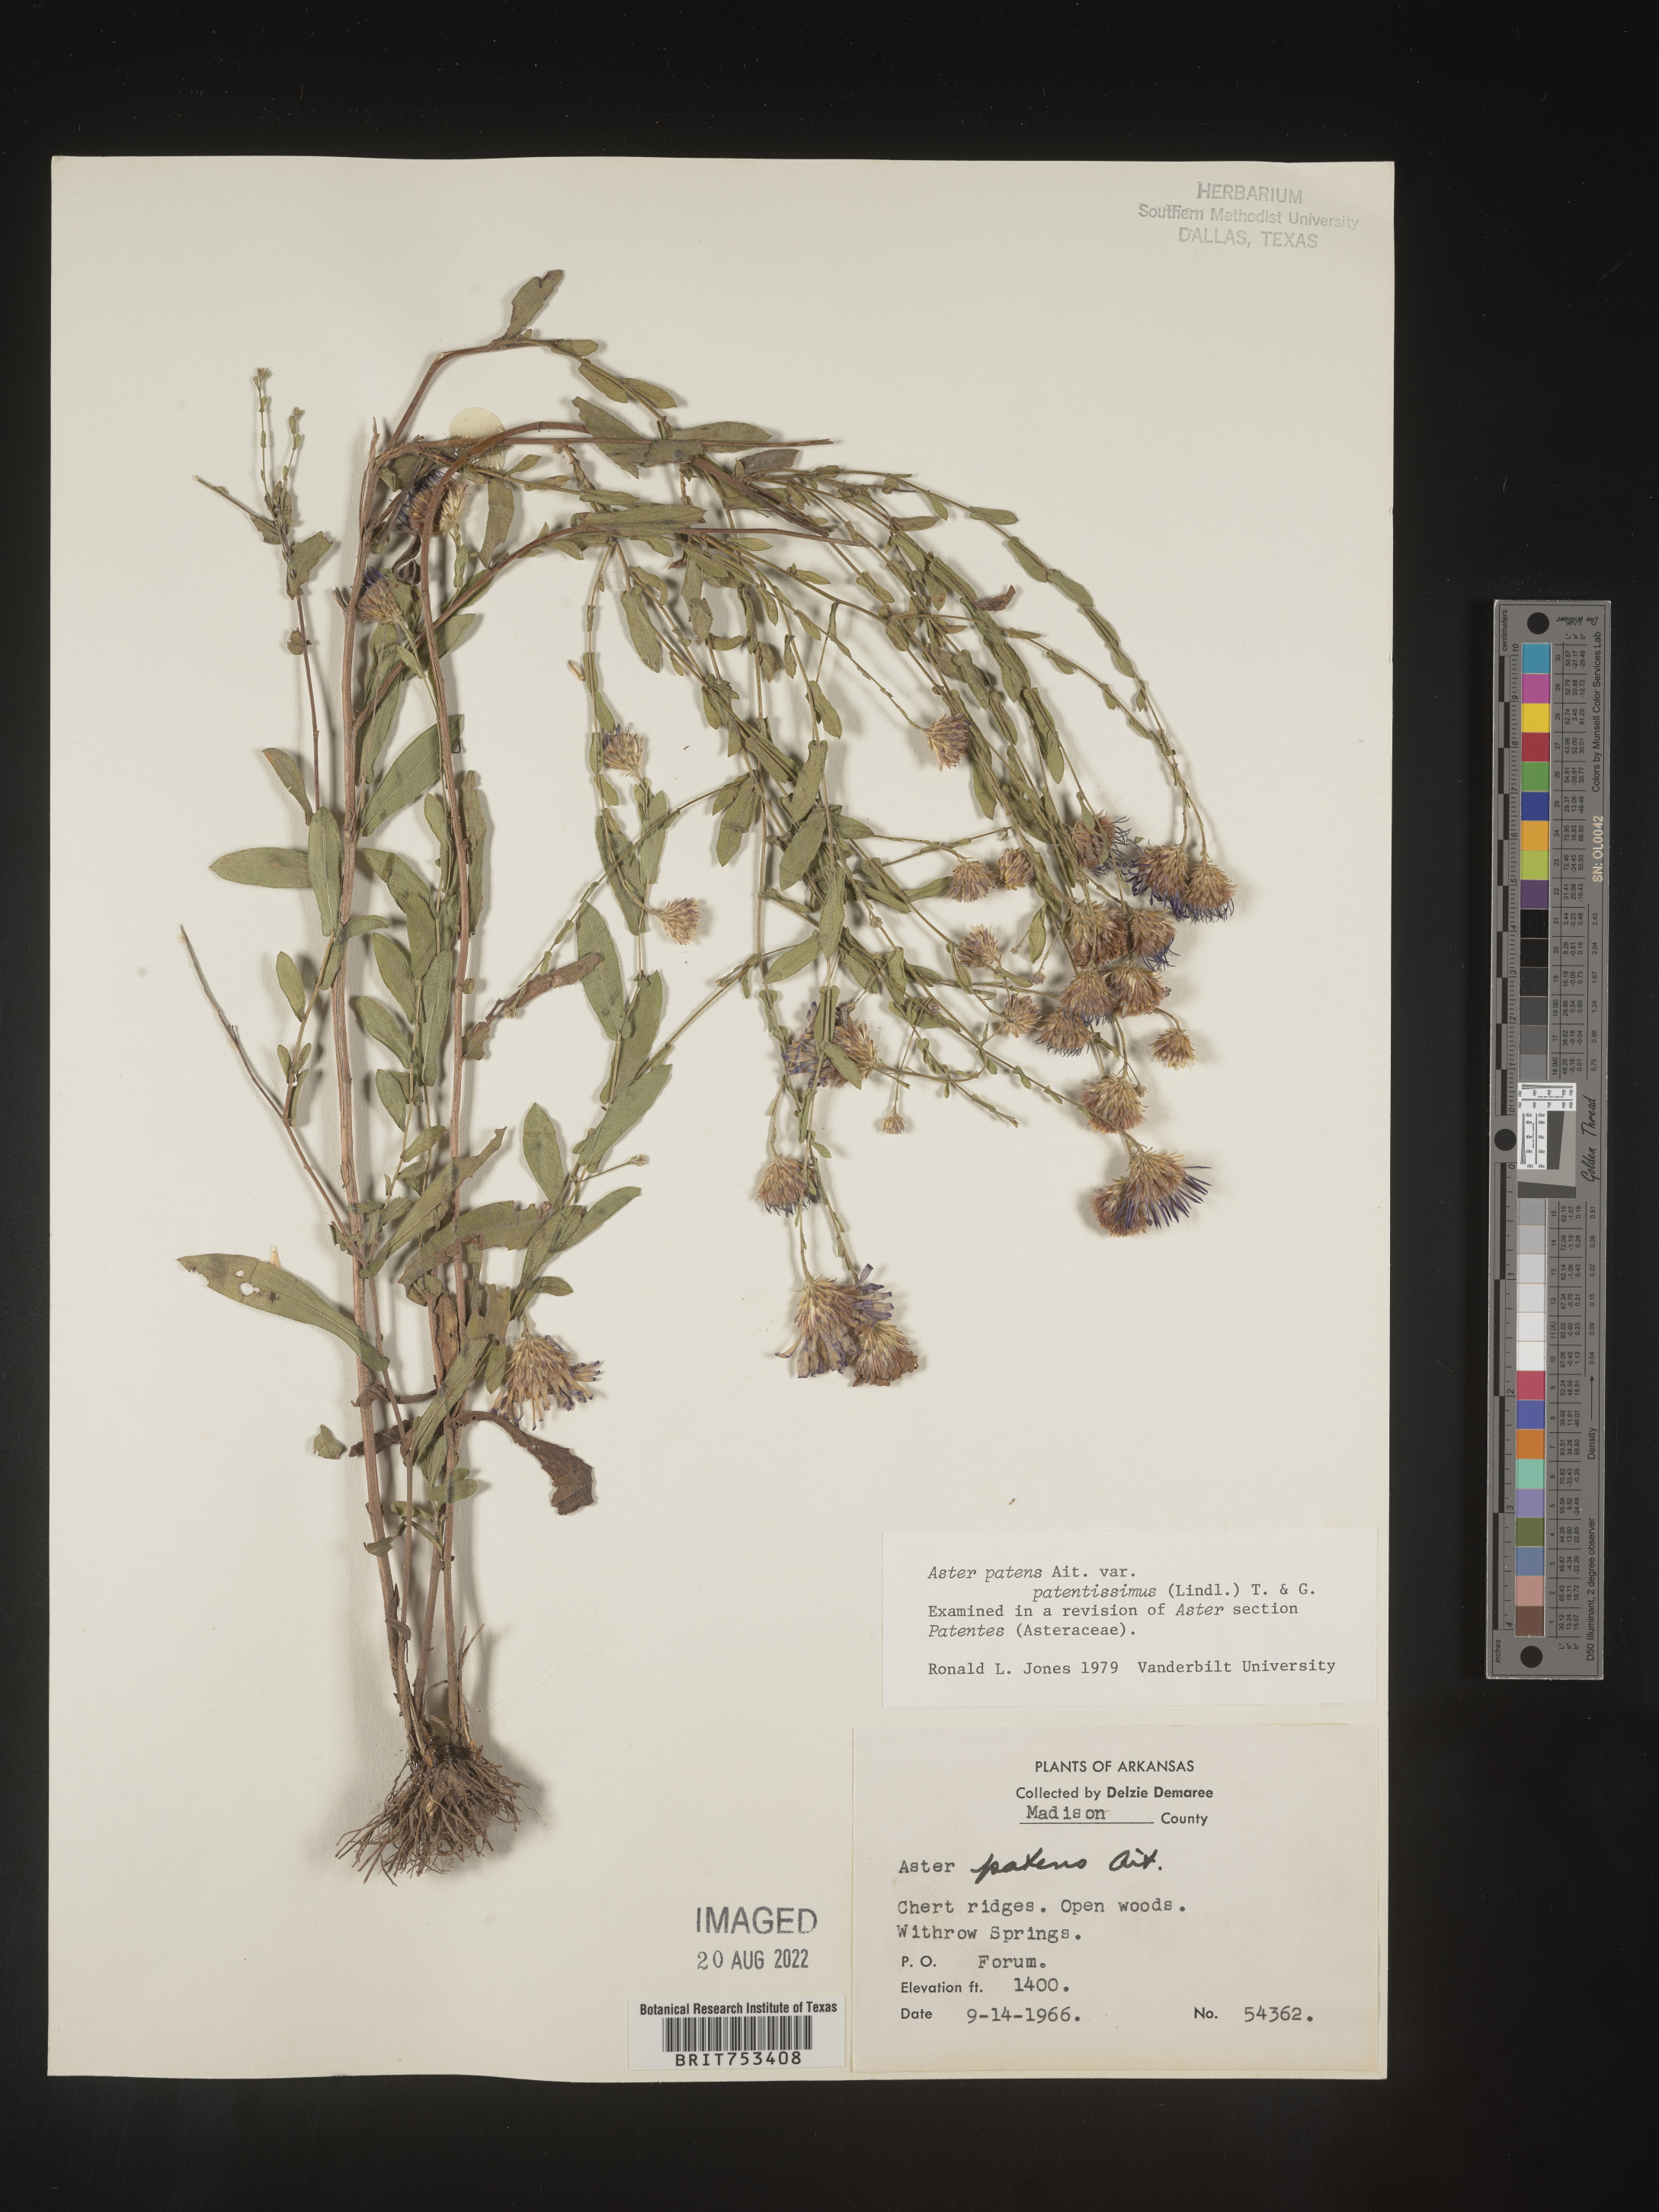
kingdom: Plantae
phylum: Tracheophyta
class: Magnoliopsida
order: Asterales
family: Asteraceae
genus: Symphyotrichum
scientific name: Symphyotrichum patens
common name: Late purple aster
